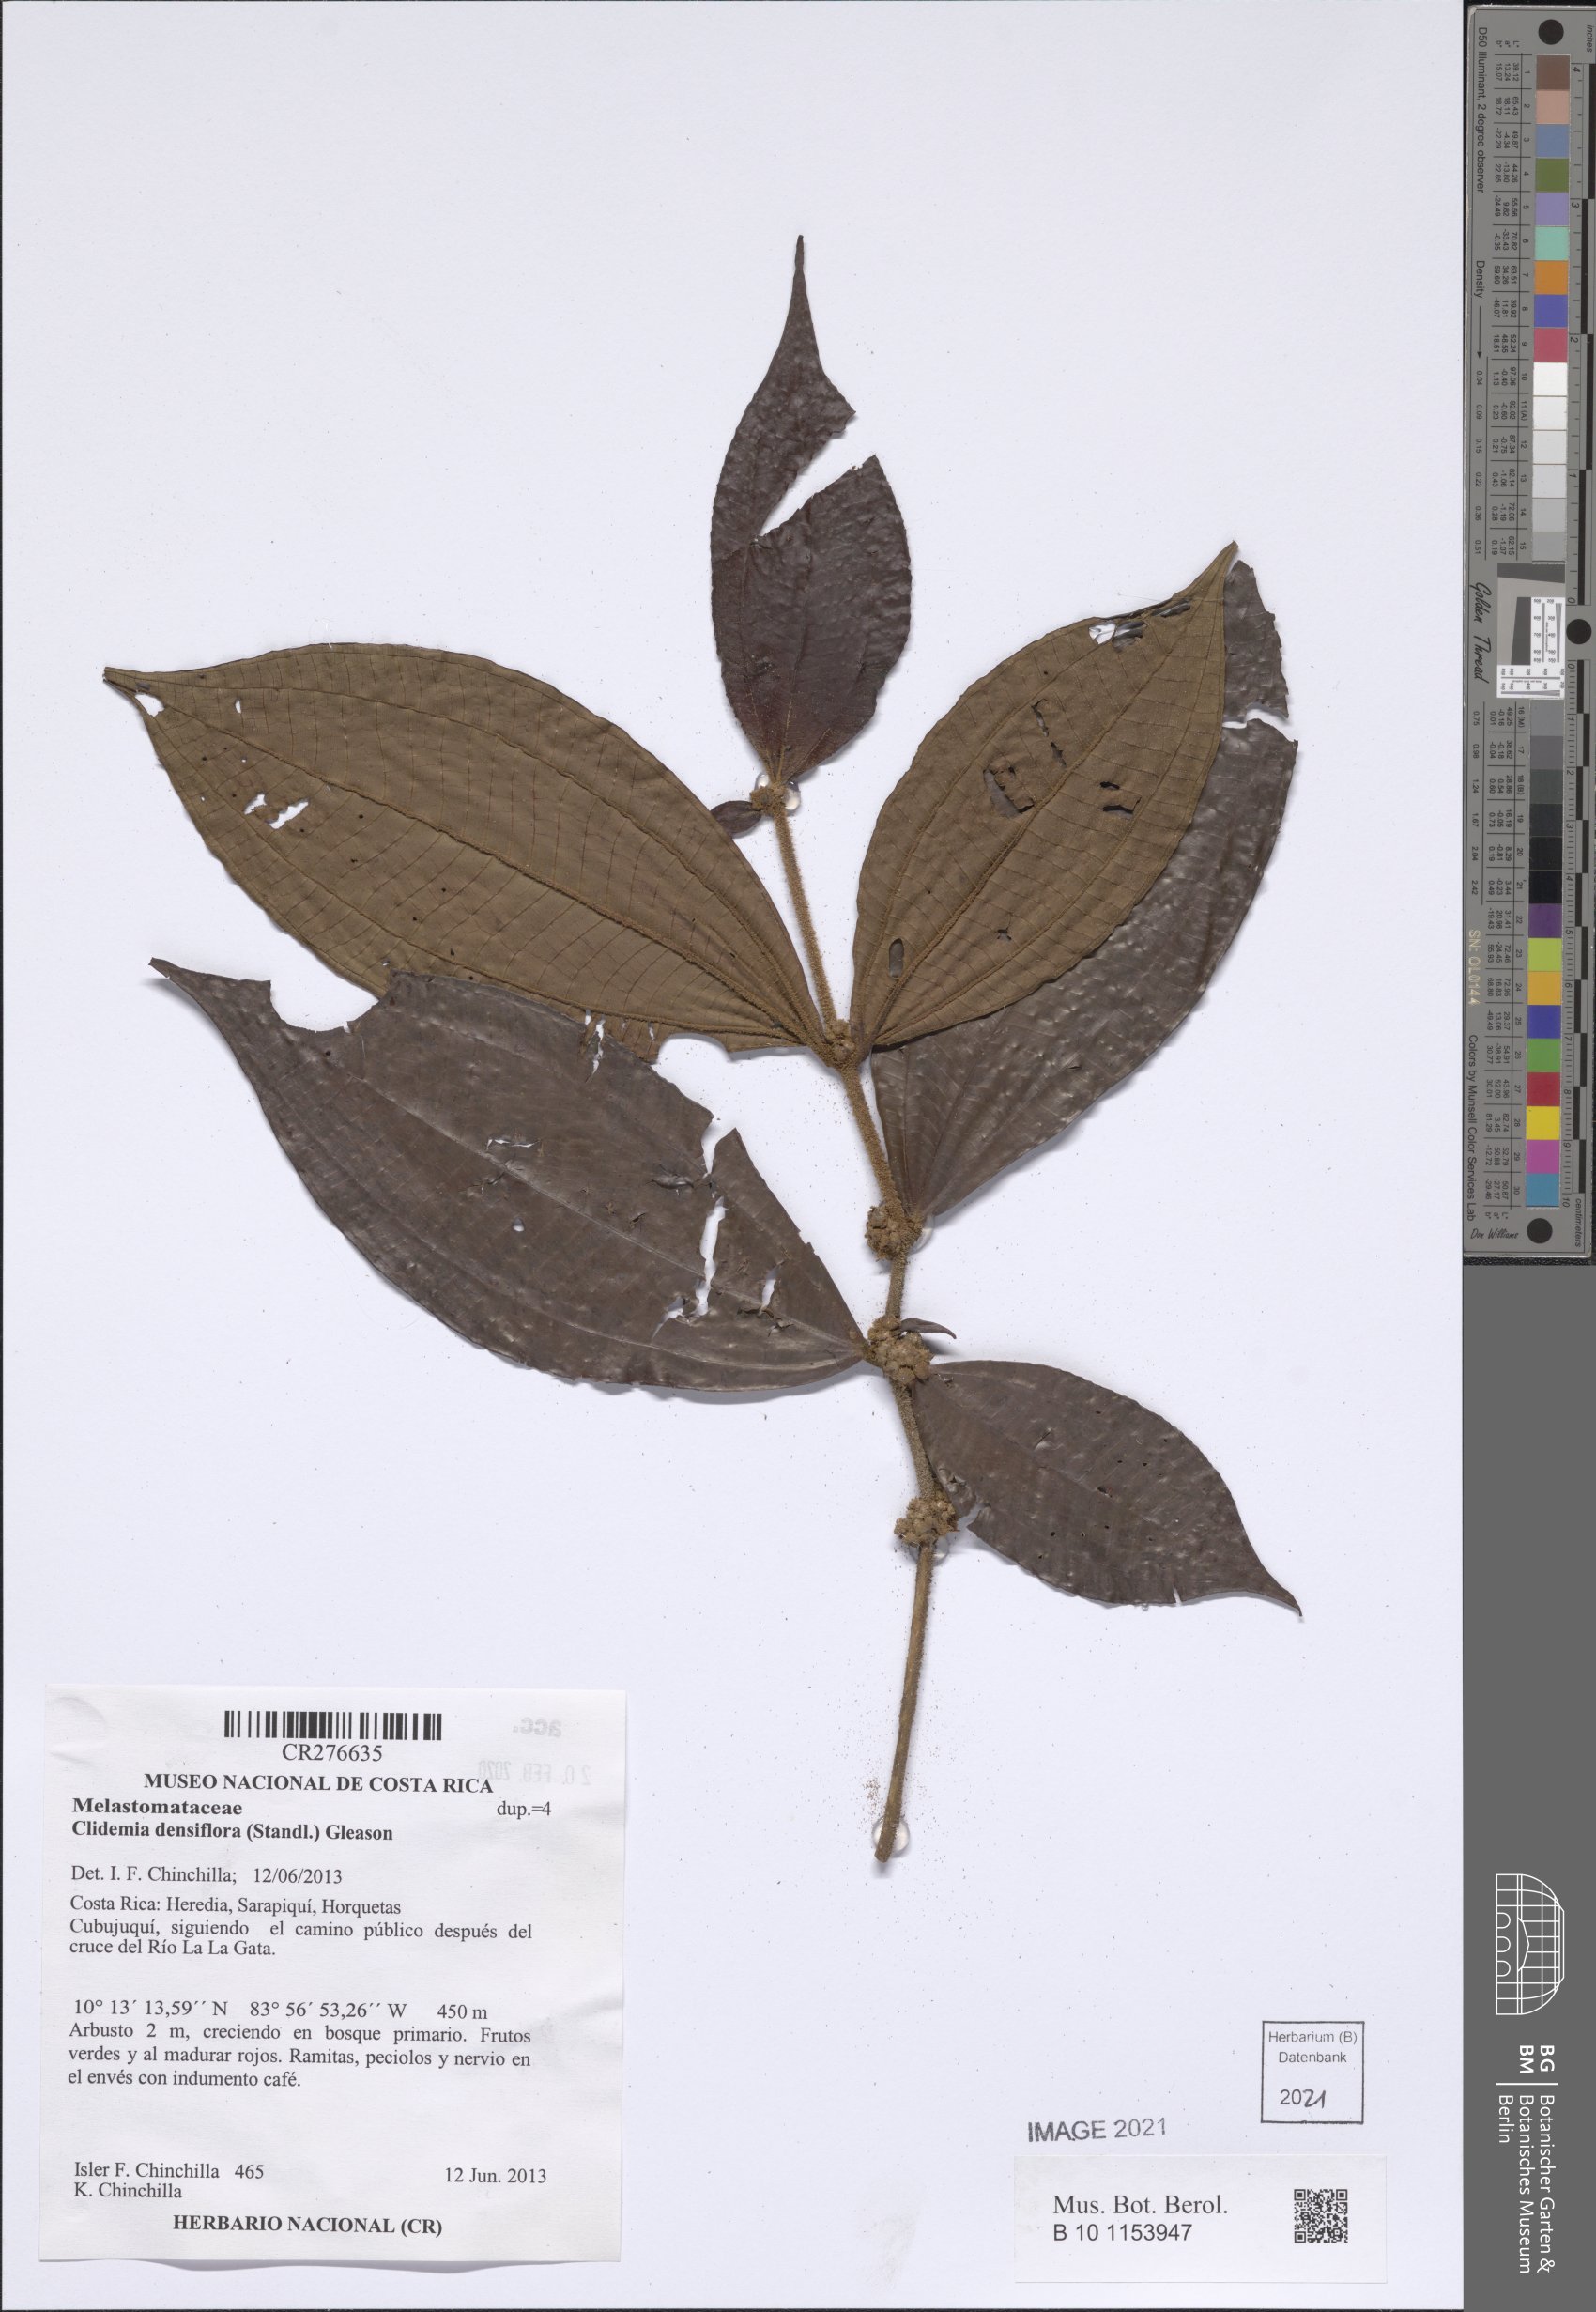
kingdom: Plantae
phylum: Tracheophyta
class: Magnoliopsida
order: Myrtales
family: Melastomataceae
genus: Miconia
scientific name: Miconia approximata
